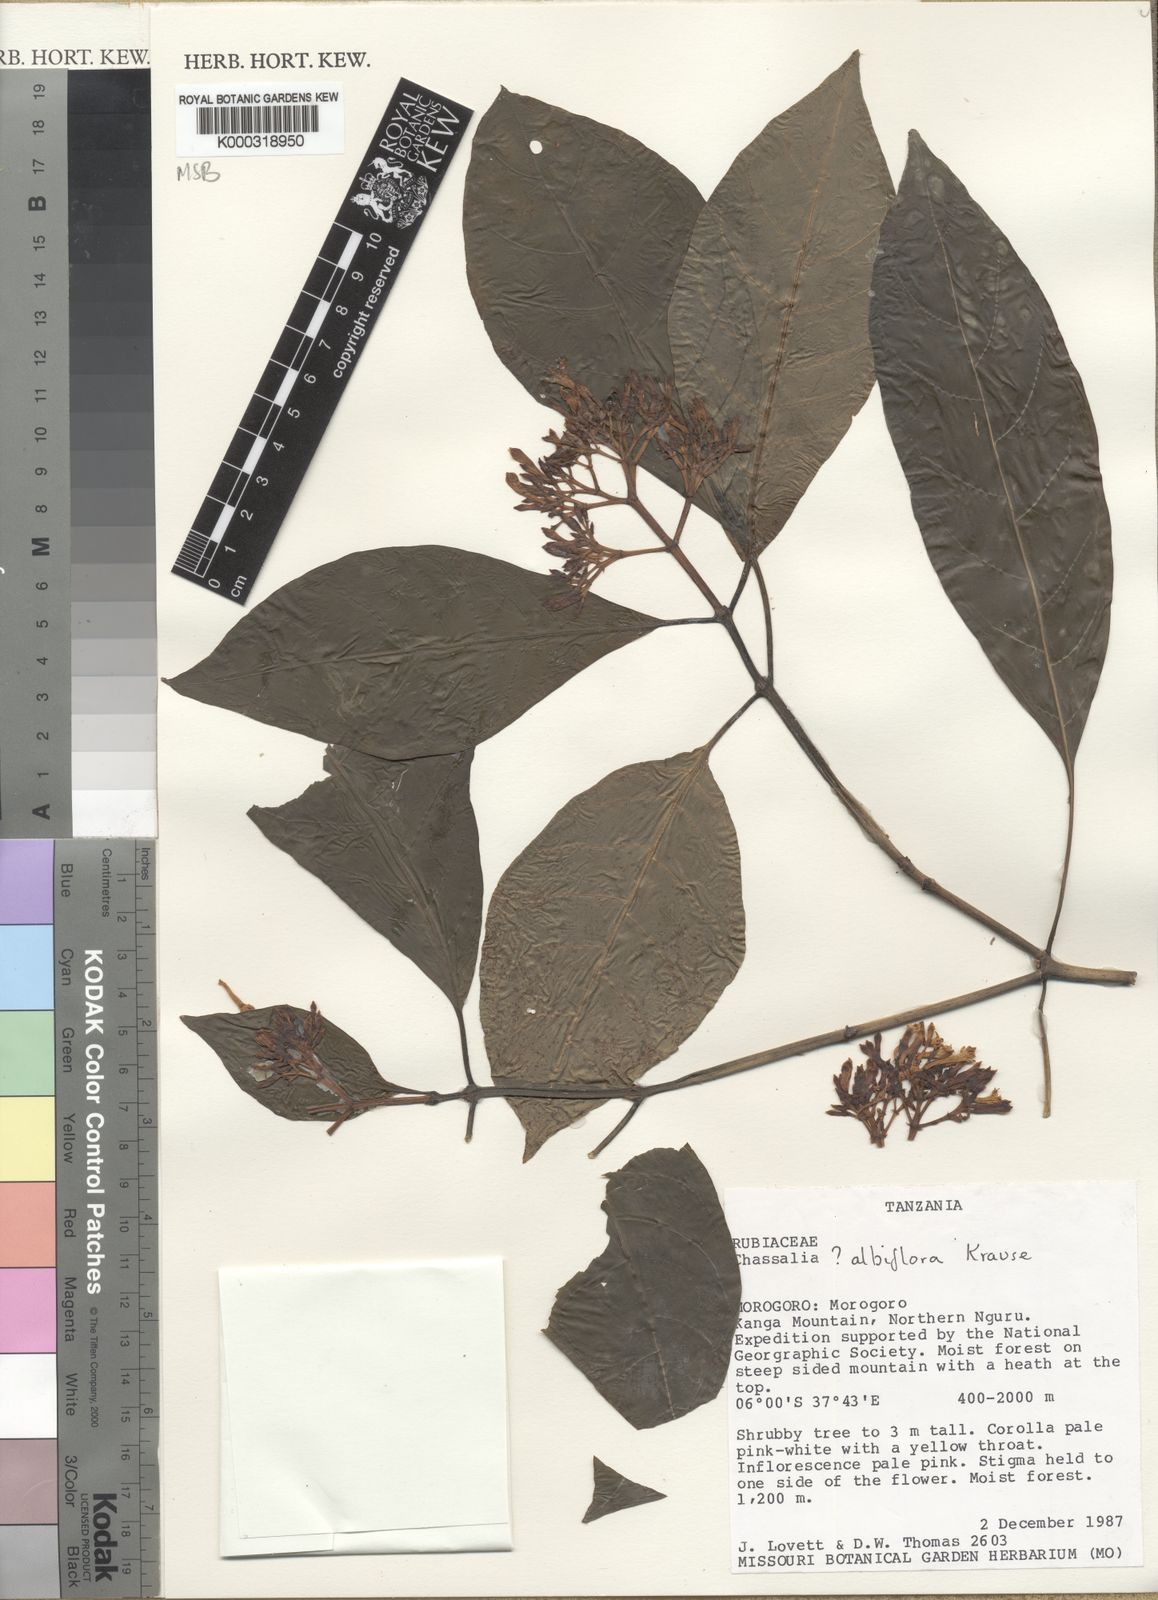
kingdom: Plantae
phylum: Tracheophyta
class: Magnoliopsida
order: Gentianales
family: Rubiaceae
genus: Chassalia
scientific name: Chassalia albiflora
